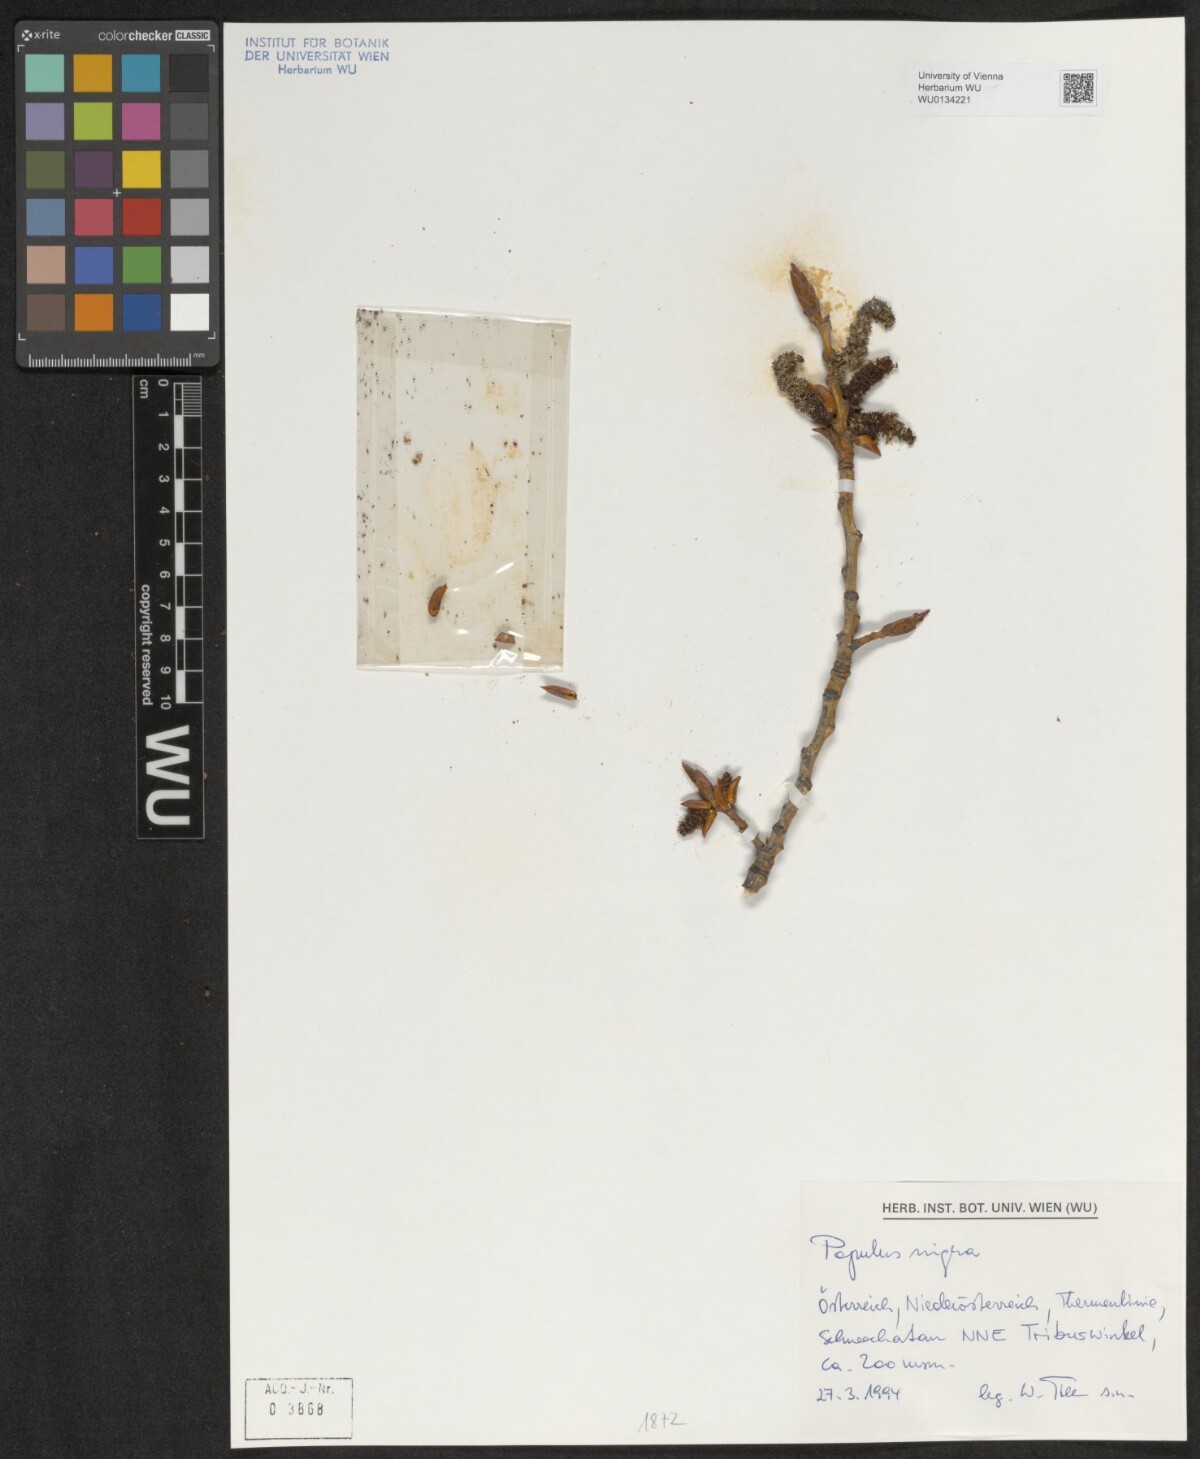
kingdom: Plantae
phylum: Tracheophyta
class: Magnoliopsida
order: Malpighiales
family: Salicaceae
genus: Populus
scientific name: Populus nigra
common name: Black poplar
